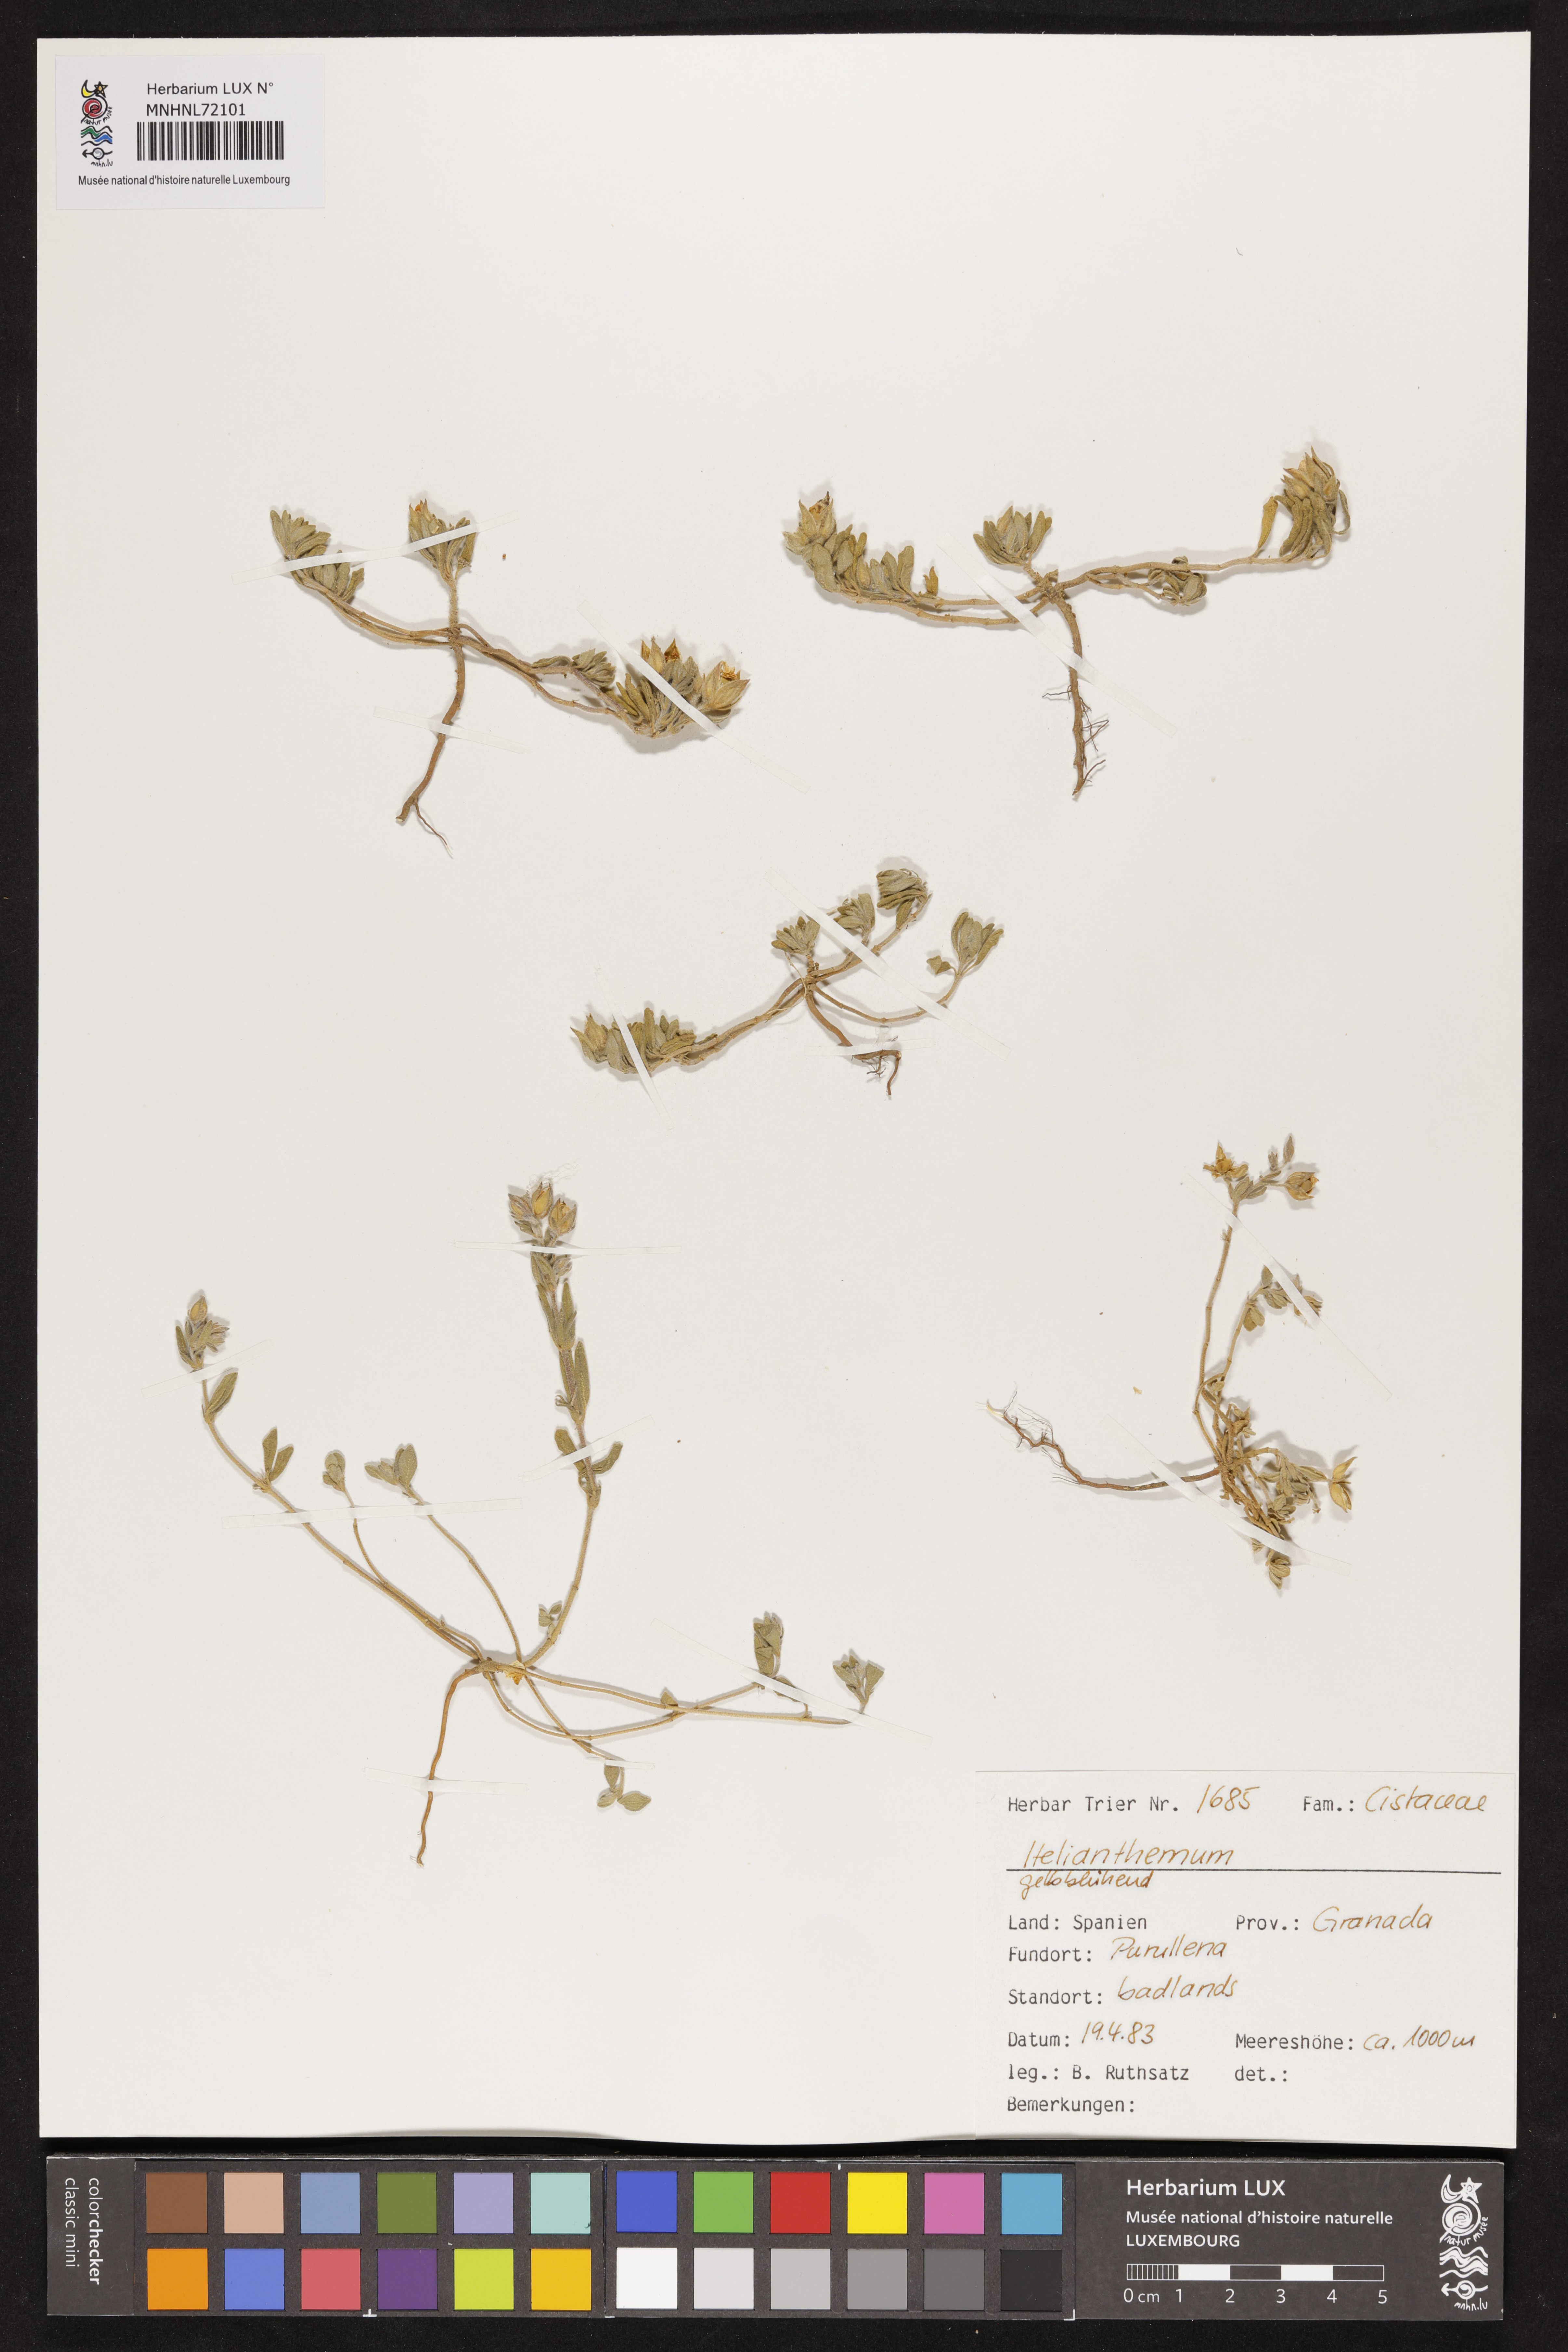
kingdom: Plantae
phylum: Tracheophyta
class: Magnoliopsida
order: Malvales
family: Cistaceae
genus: Helianthemum
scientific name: Helianthemum
